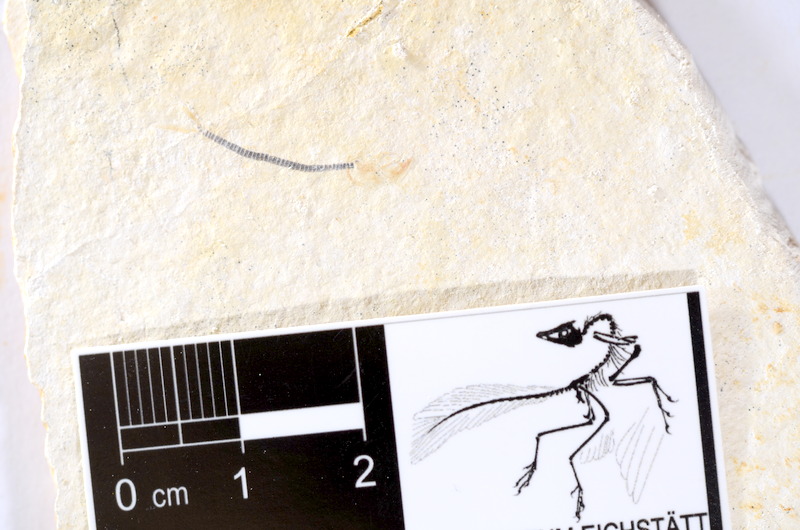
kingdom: Animalia
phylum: Chordata
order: Salmoniformes
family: Orthogonikleithridae
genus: Orthogonikleithrus
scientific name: Orthogonikleithrus hoelli
